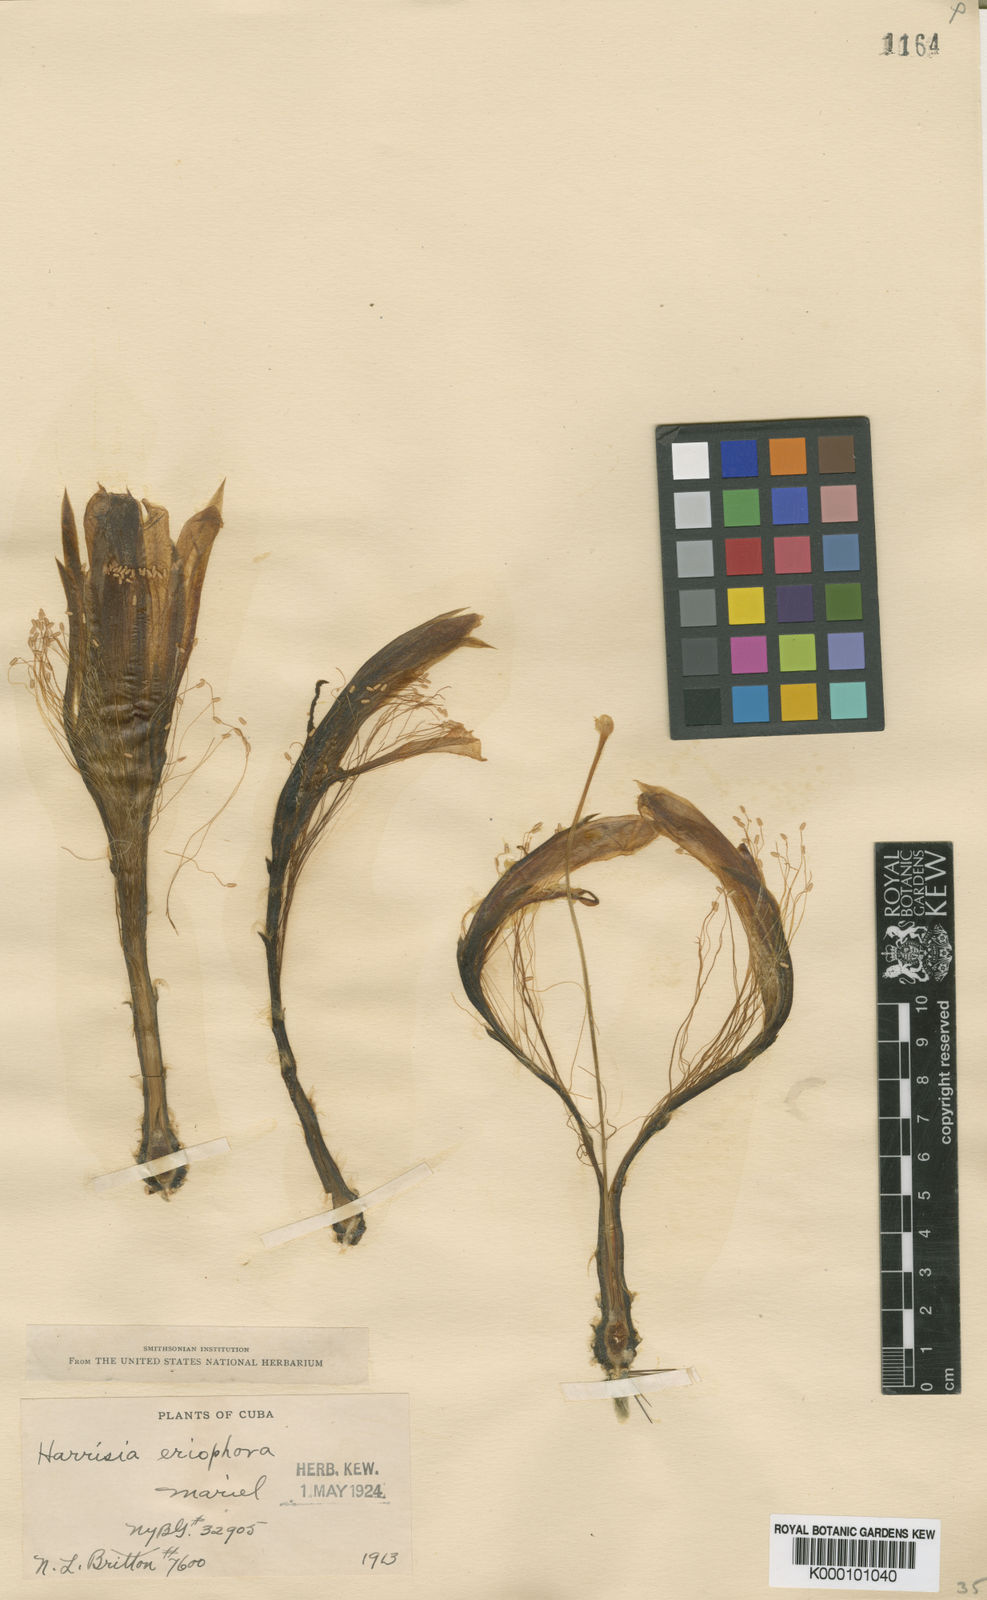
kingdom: Plantae
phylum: Tracheophyta
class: Magnoliopsida
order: Caryophyllales
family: Cactaceae
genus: Harrisia
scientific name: Harrisia eriophora
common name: Fragrant apple cactus
